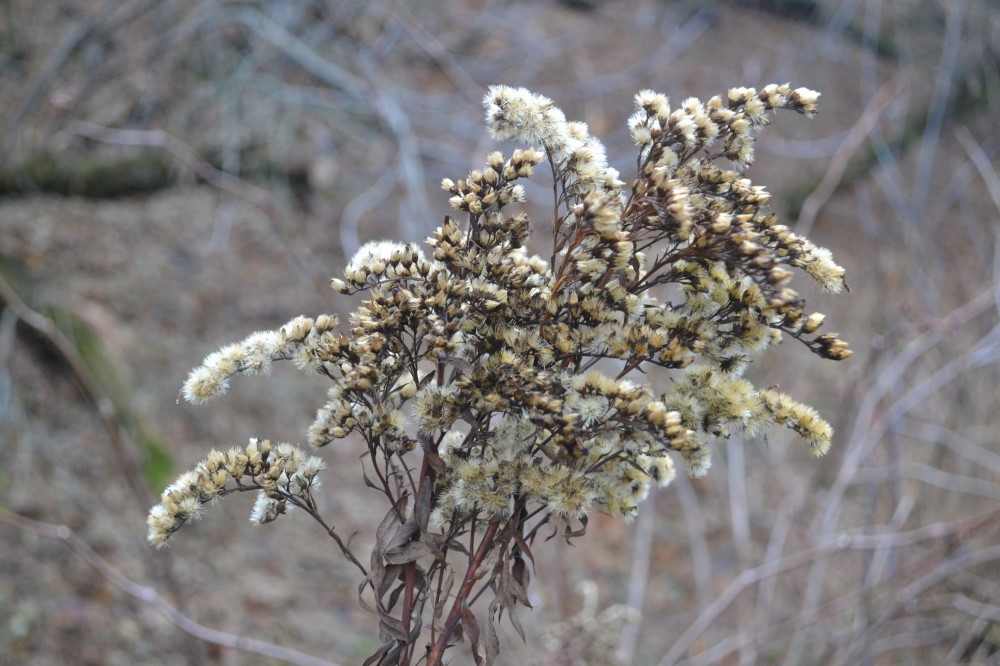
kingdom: Plantae
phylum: Tracheophyta
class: Magnoliopsida
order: Asterales
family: Asteraceae
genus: Solidago
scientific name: Solidago canadensis
